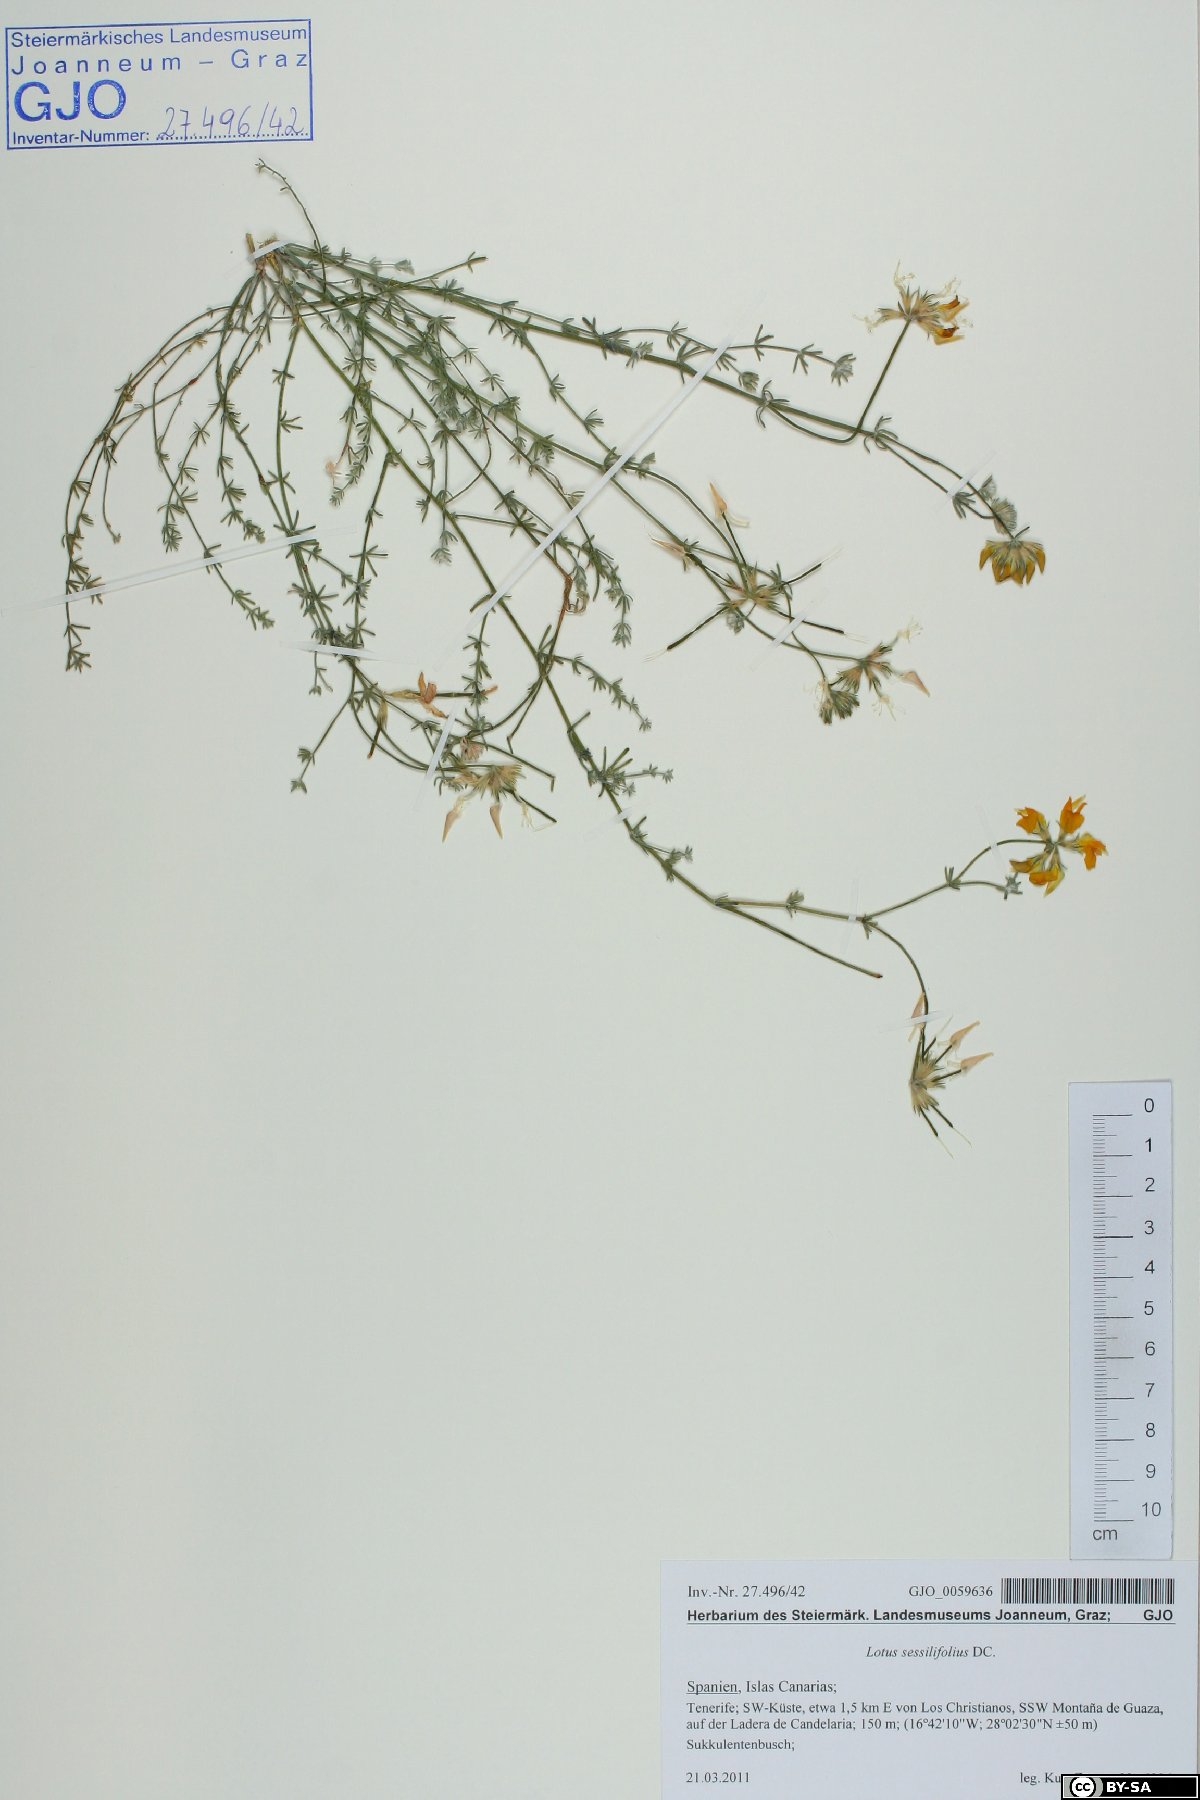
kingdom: Plantae
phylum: Tracheophyta
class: Magnoliopsida
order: Fabales
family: Fabaceae
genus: Lotus
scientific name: Lotus sessilifolius
